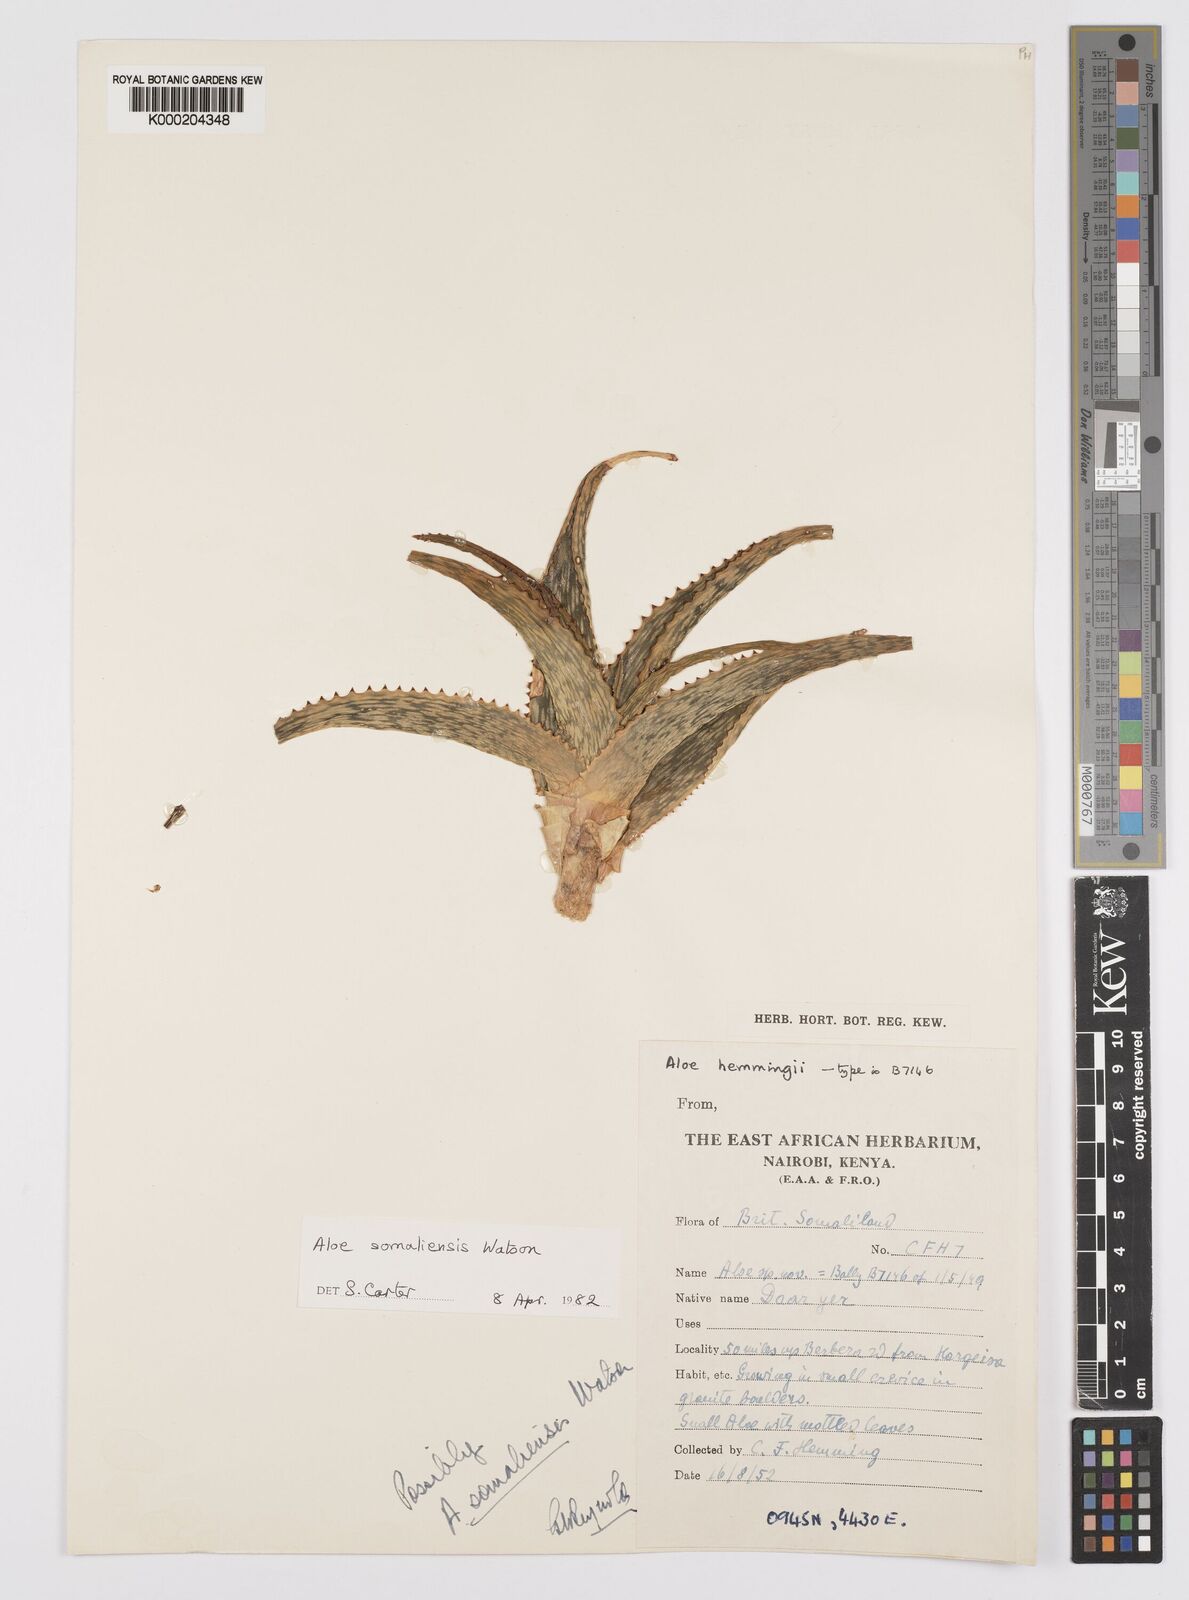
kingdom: Plantae
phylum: Tracheophyta
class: Liliopsida
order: Asparagales
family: Asphodelaceae
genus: Aloe
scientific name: Aloe somaliensis
